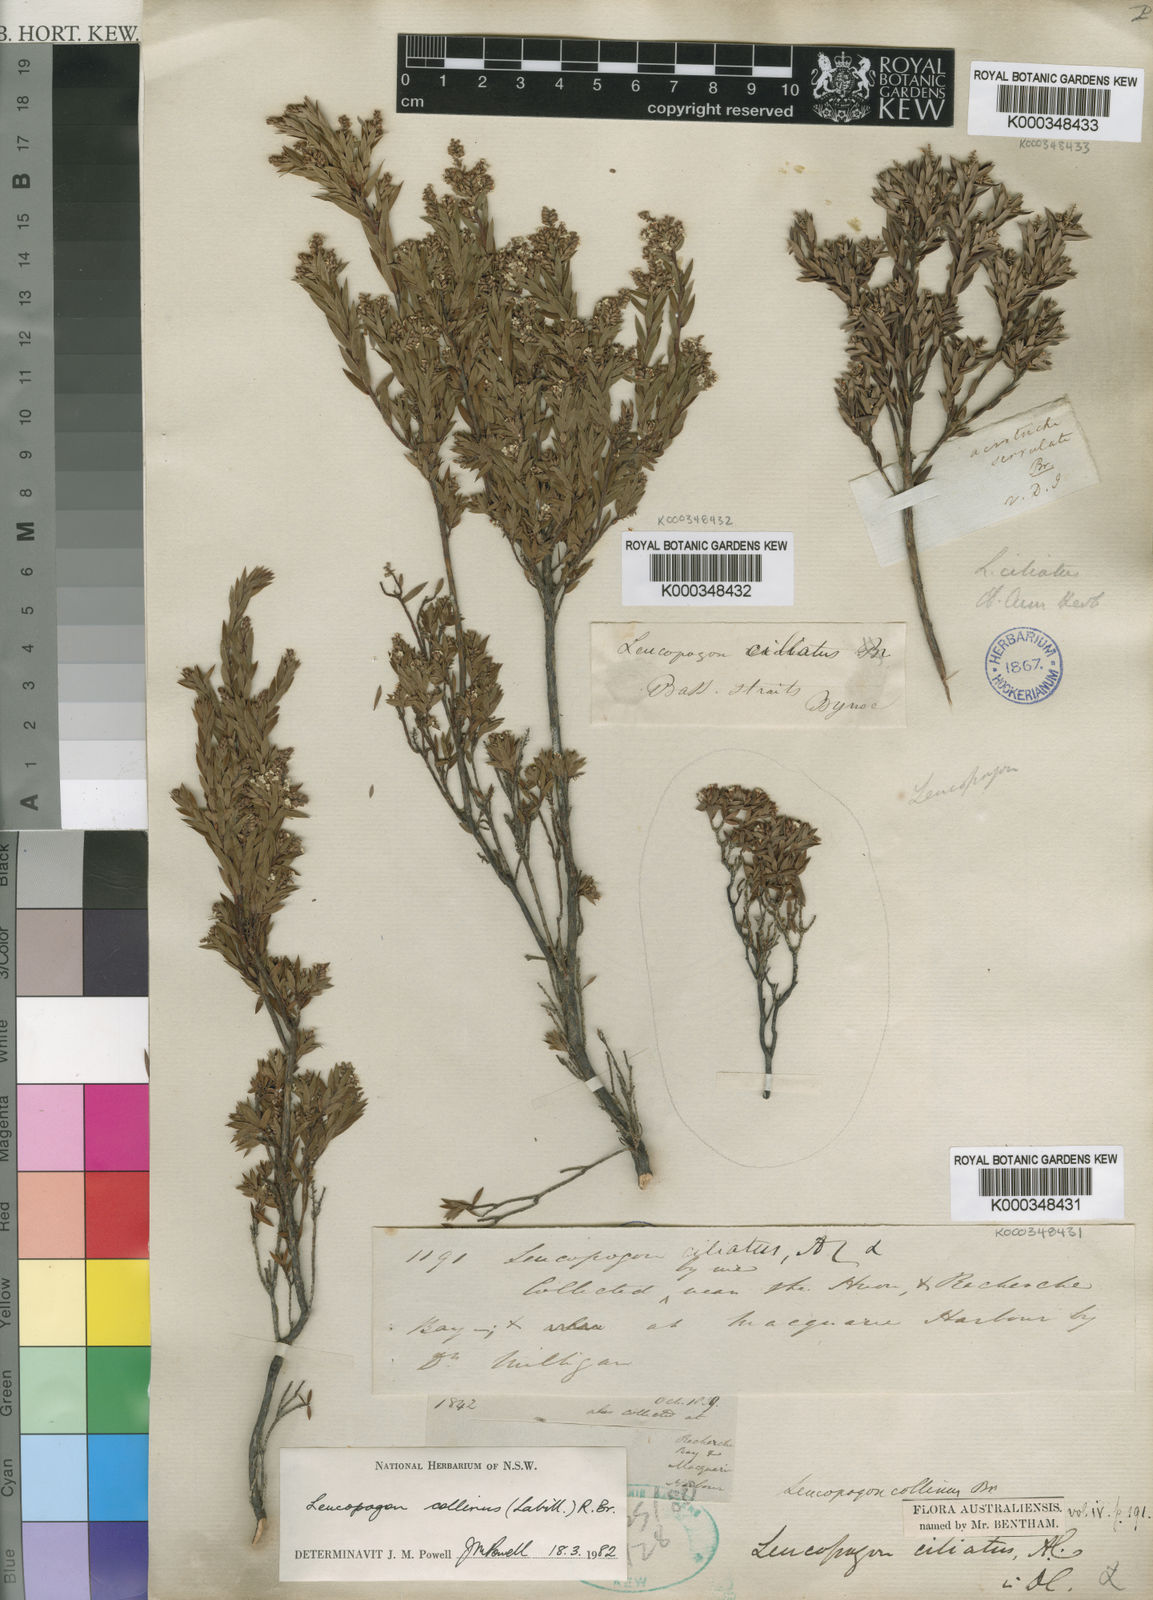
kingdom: Plantae
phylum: Tracheophyta
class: Magnoliopsida
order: Ericales
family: Ericaceae
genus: Leucopogon
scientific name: Leucopogon collinus
